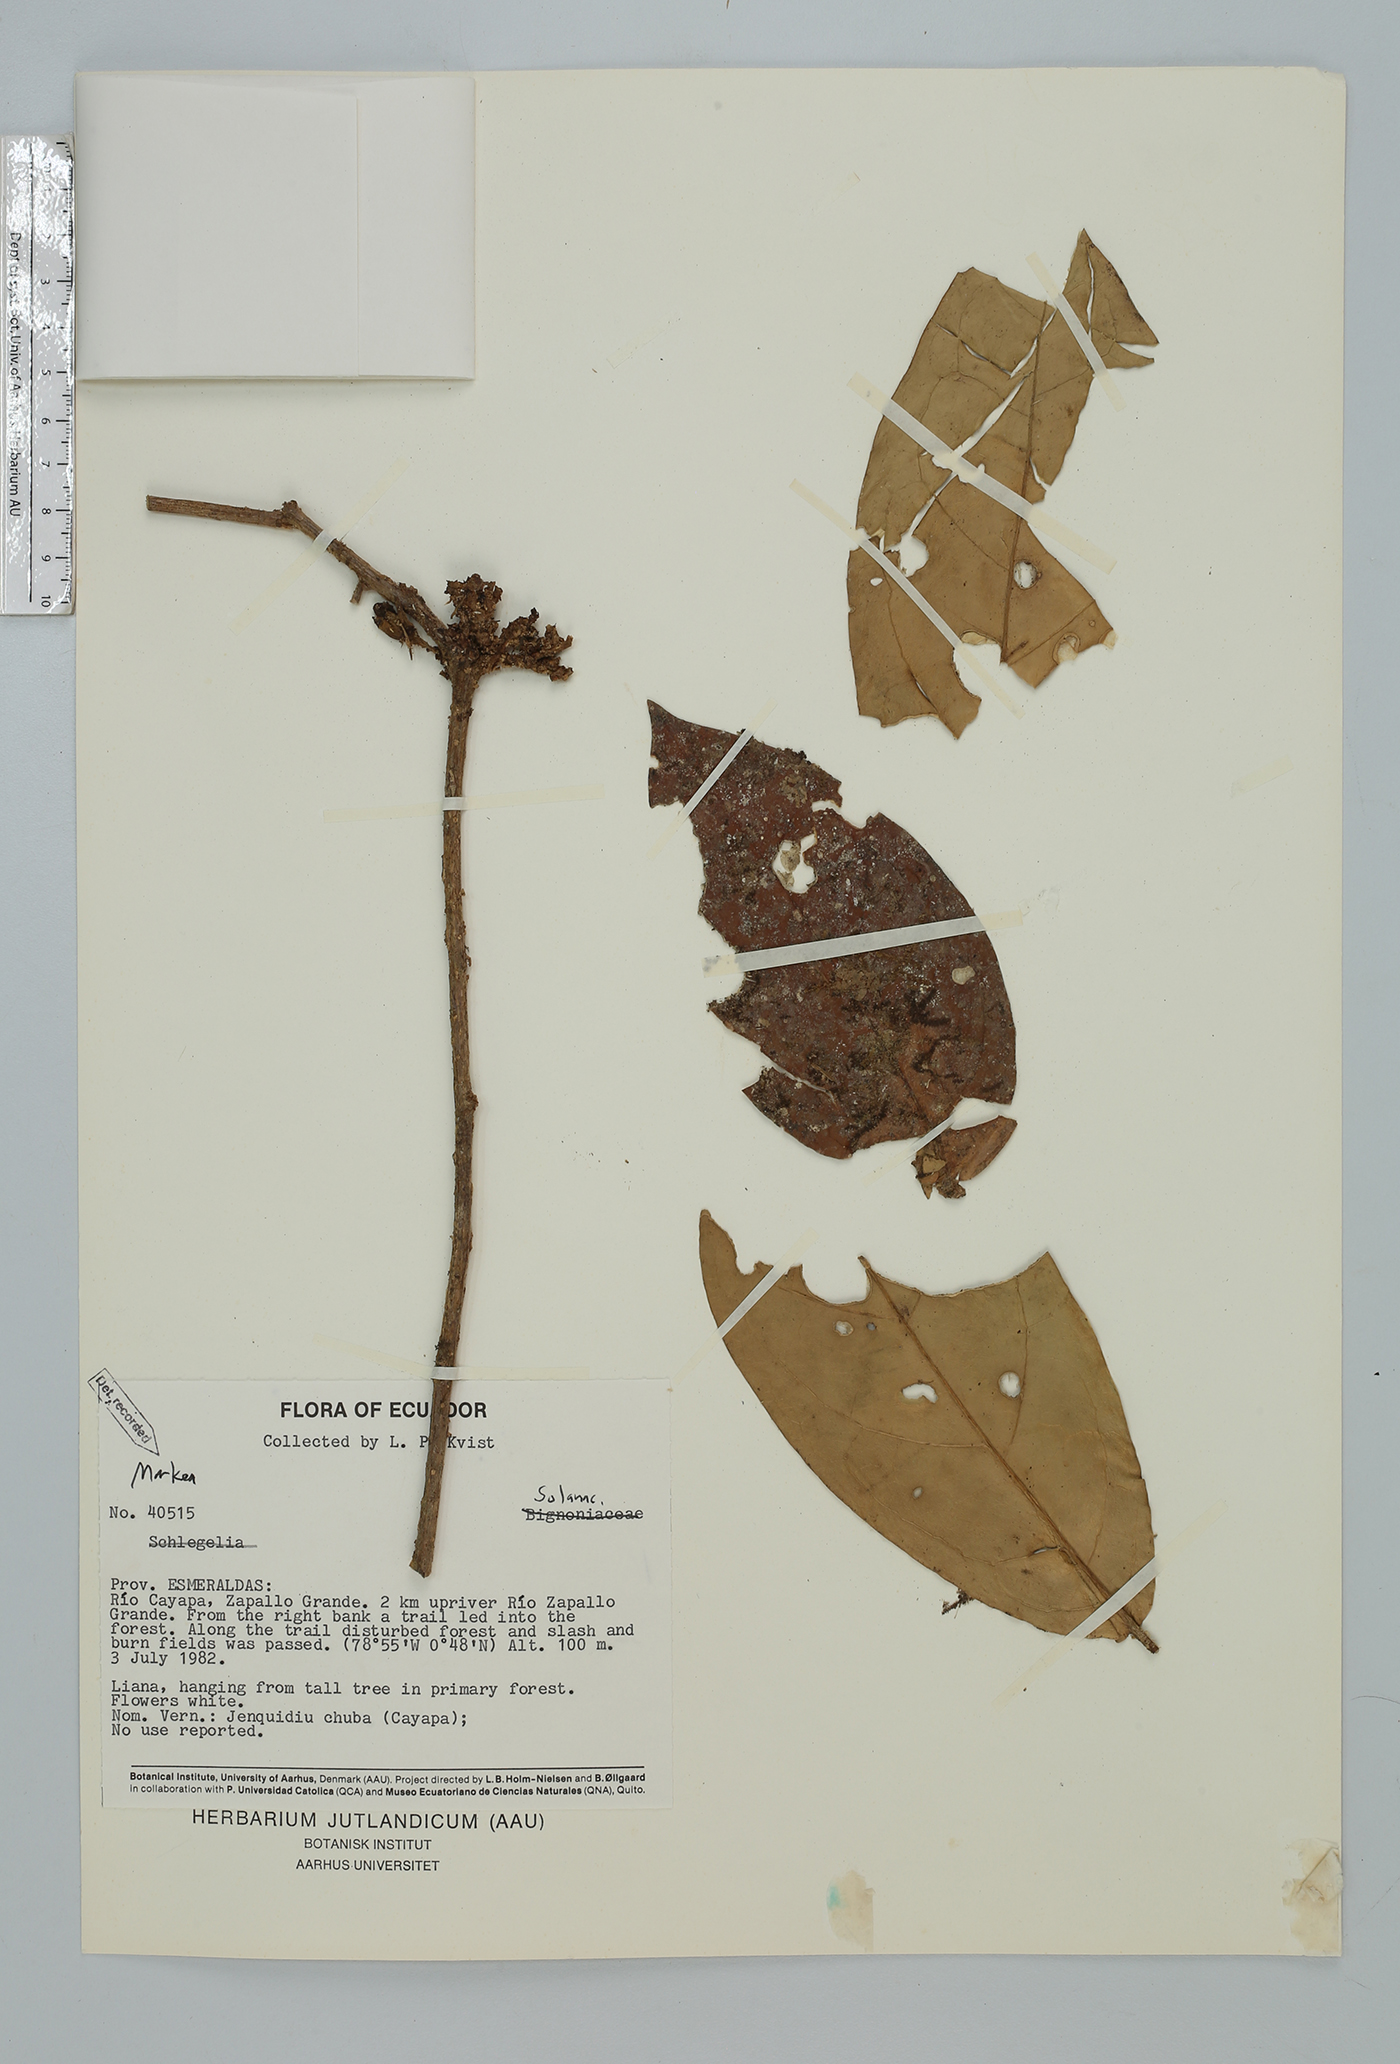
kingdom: Plantae
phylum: Tracheophyta
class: Magnoliopsida
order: Solanales
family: Solanaceae
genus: Markea
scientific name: Markea pavonii
